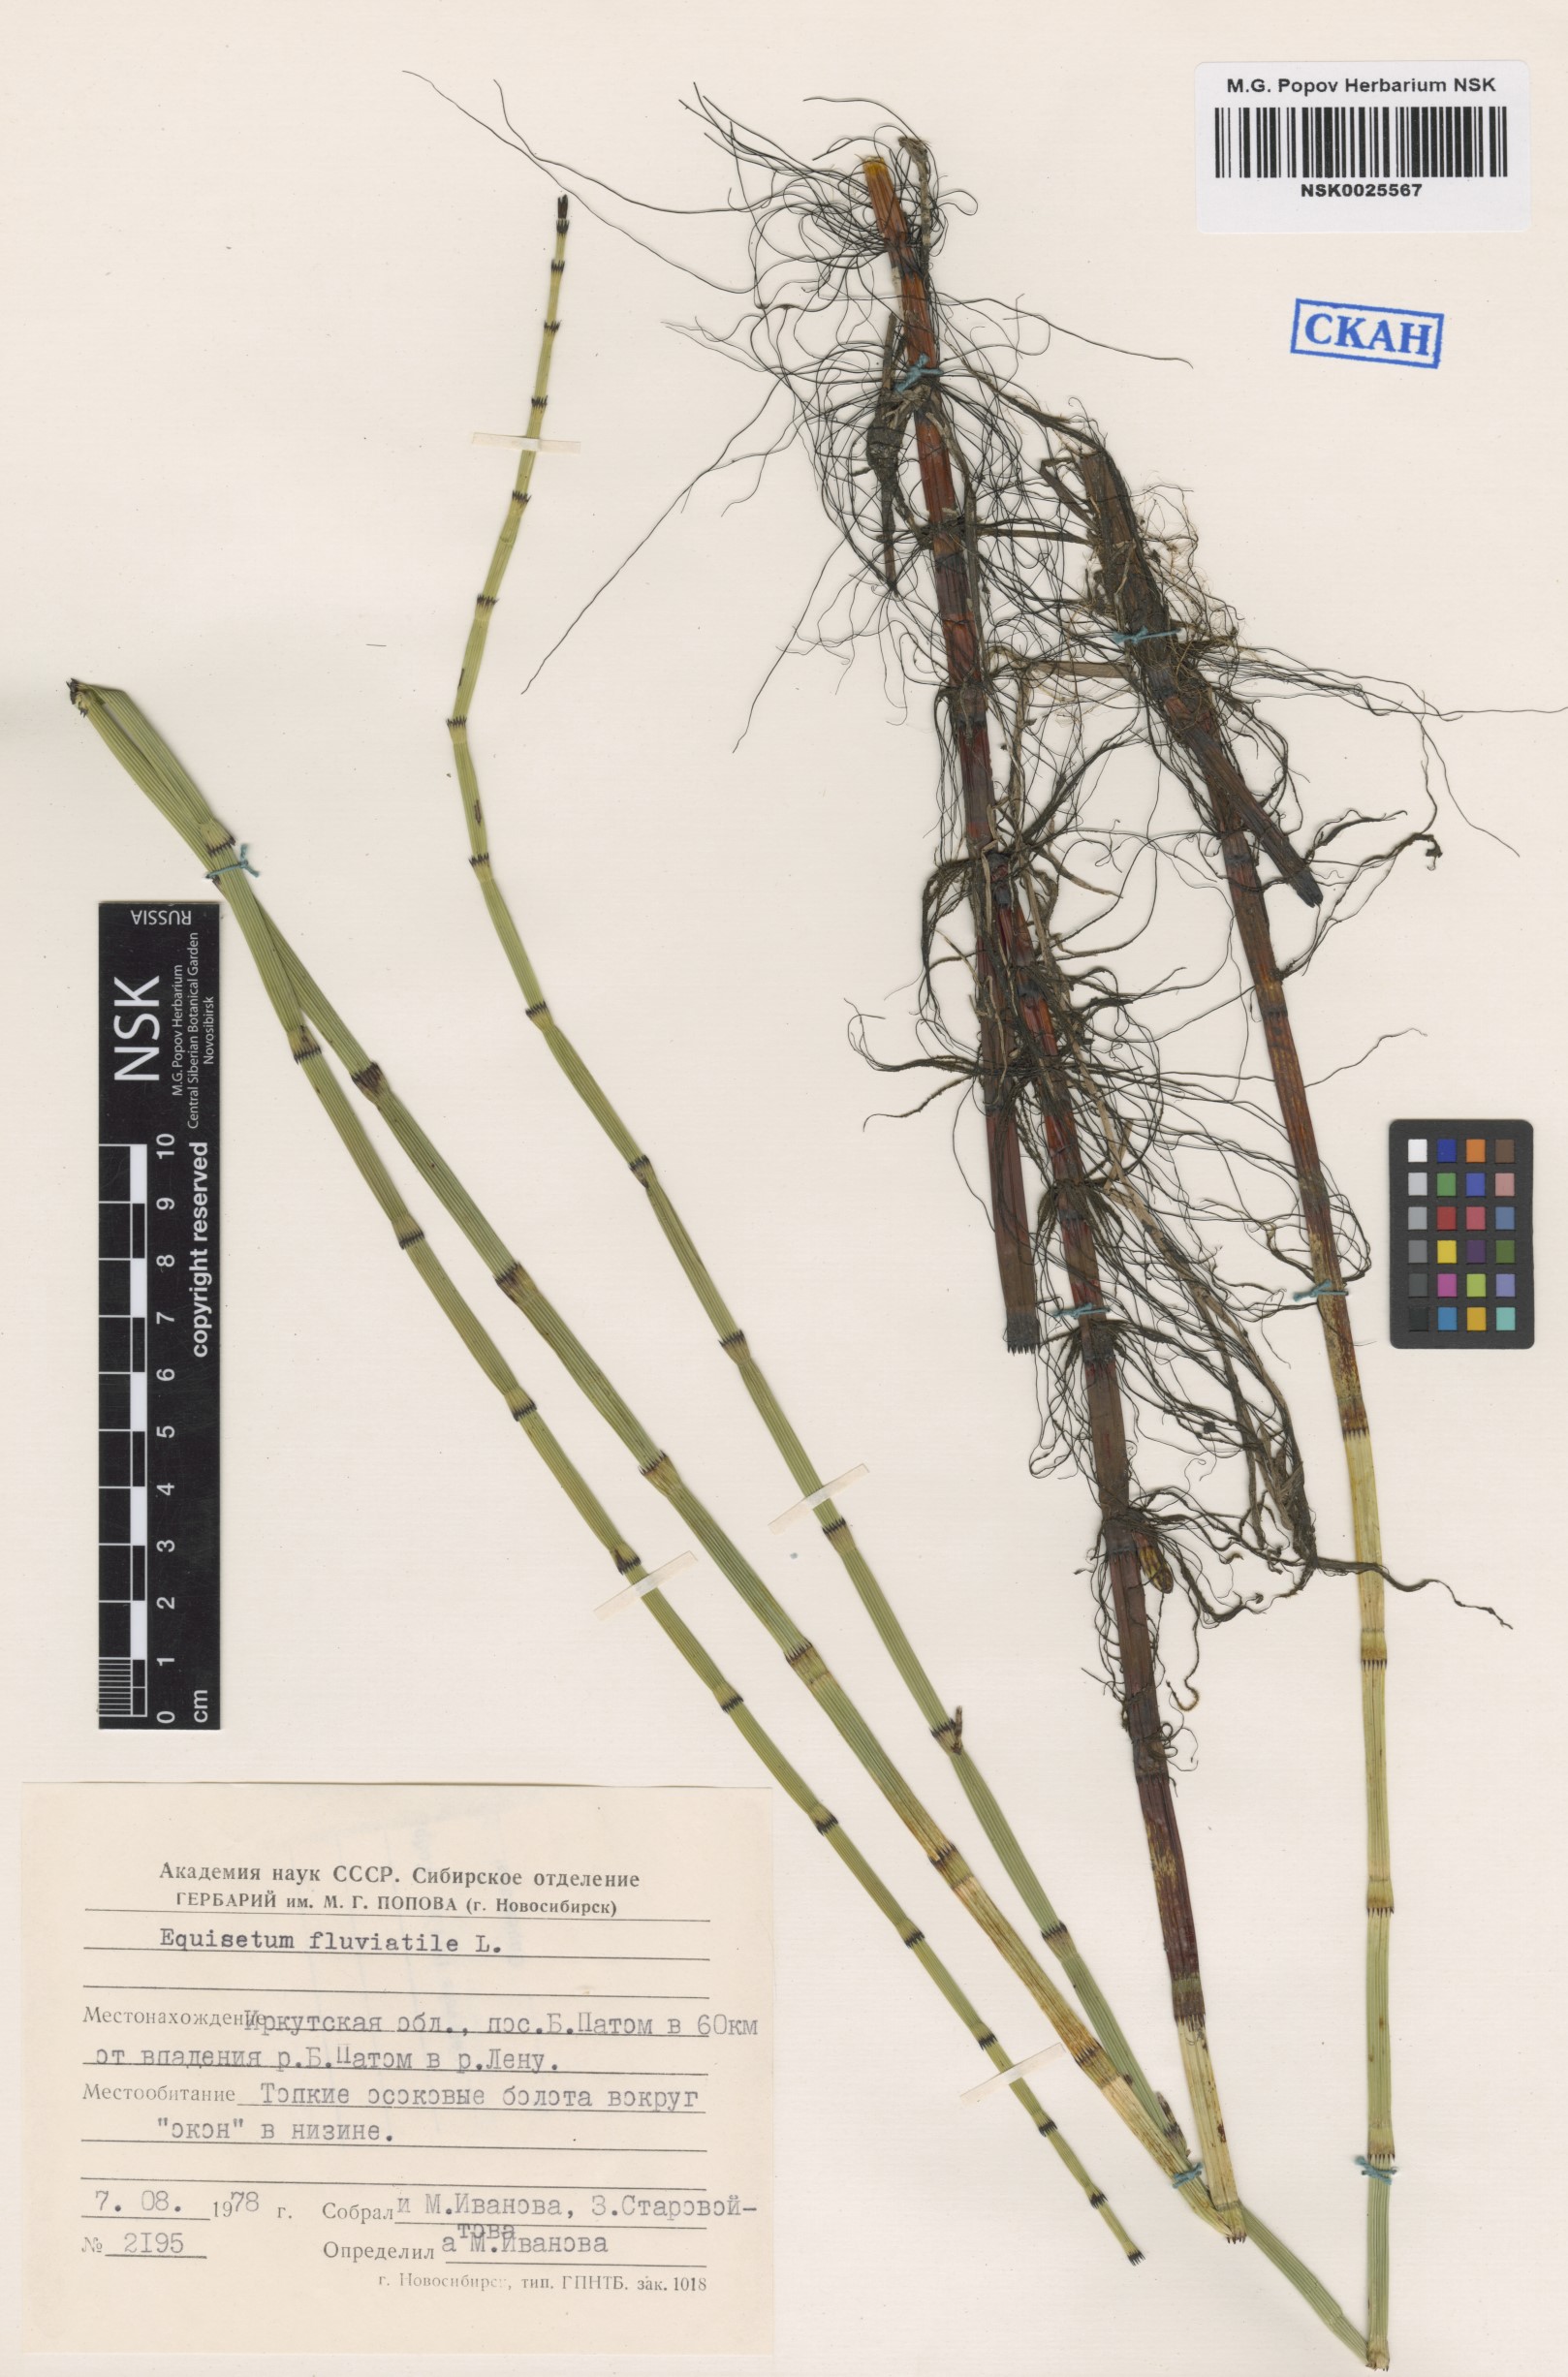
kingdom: Plantae
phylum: Tracheophyta
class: Polypodiopsida
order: Equisetales
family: Equisetaceae
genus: Equisetum
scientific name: Equisetum fluviatile
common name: Water horsetail
